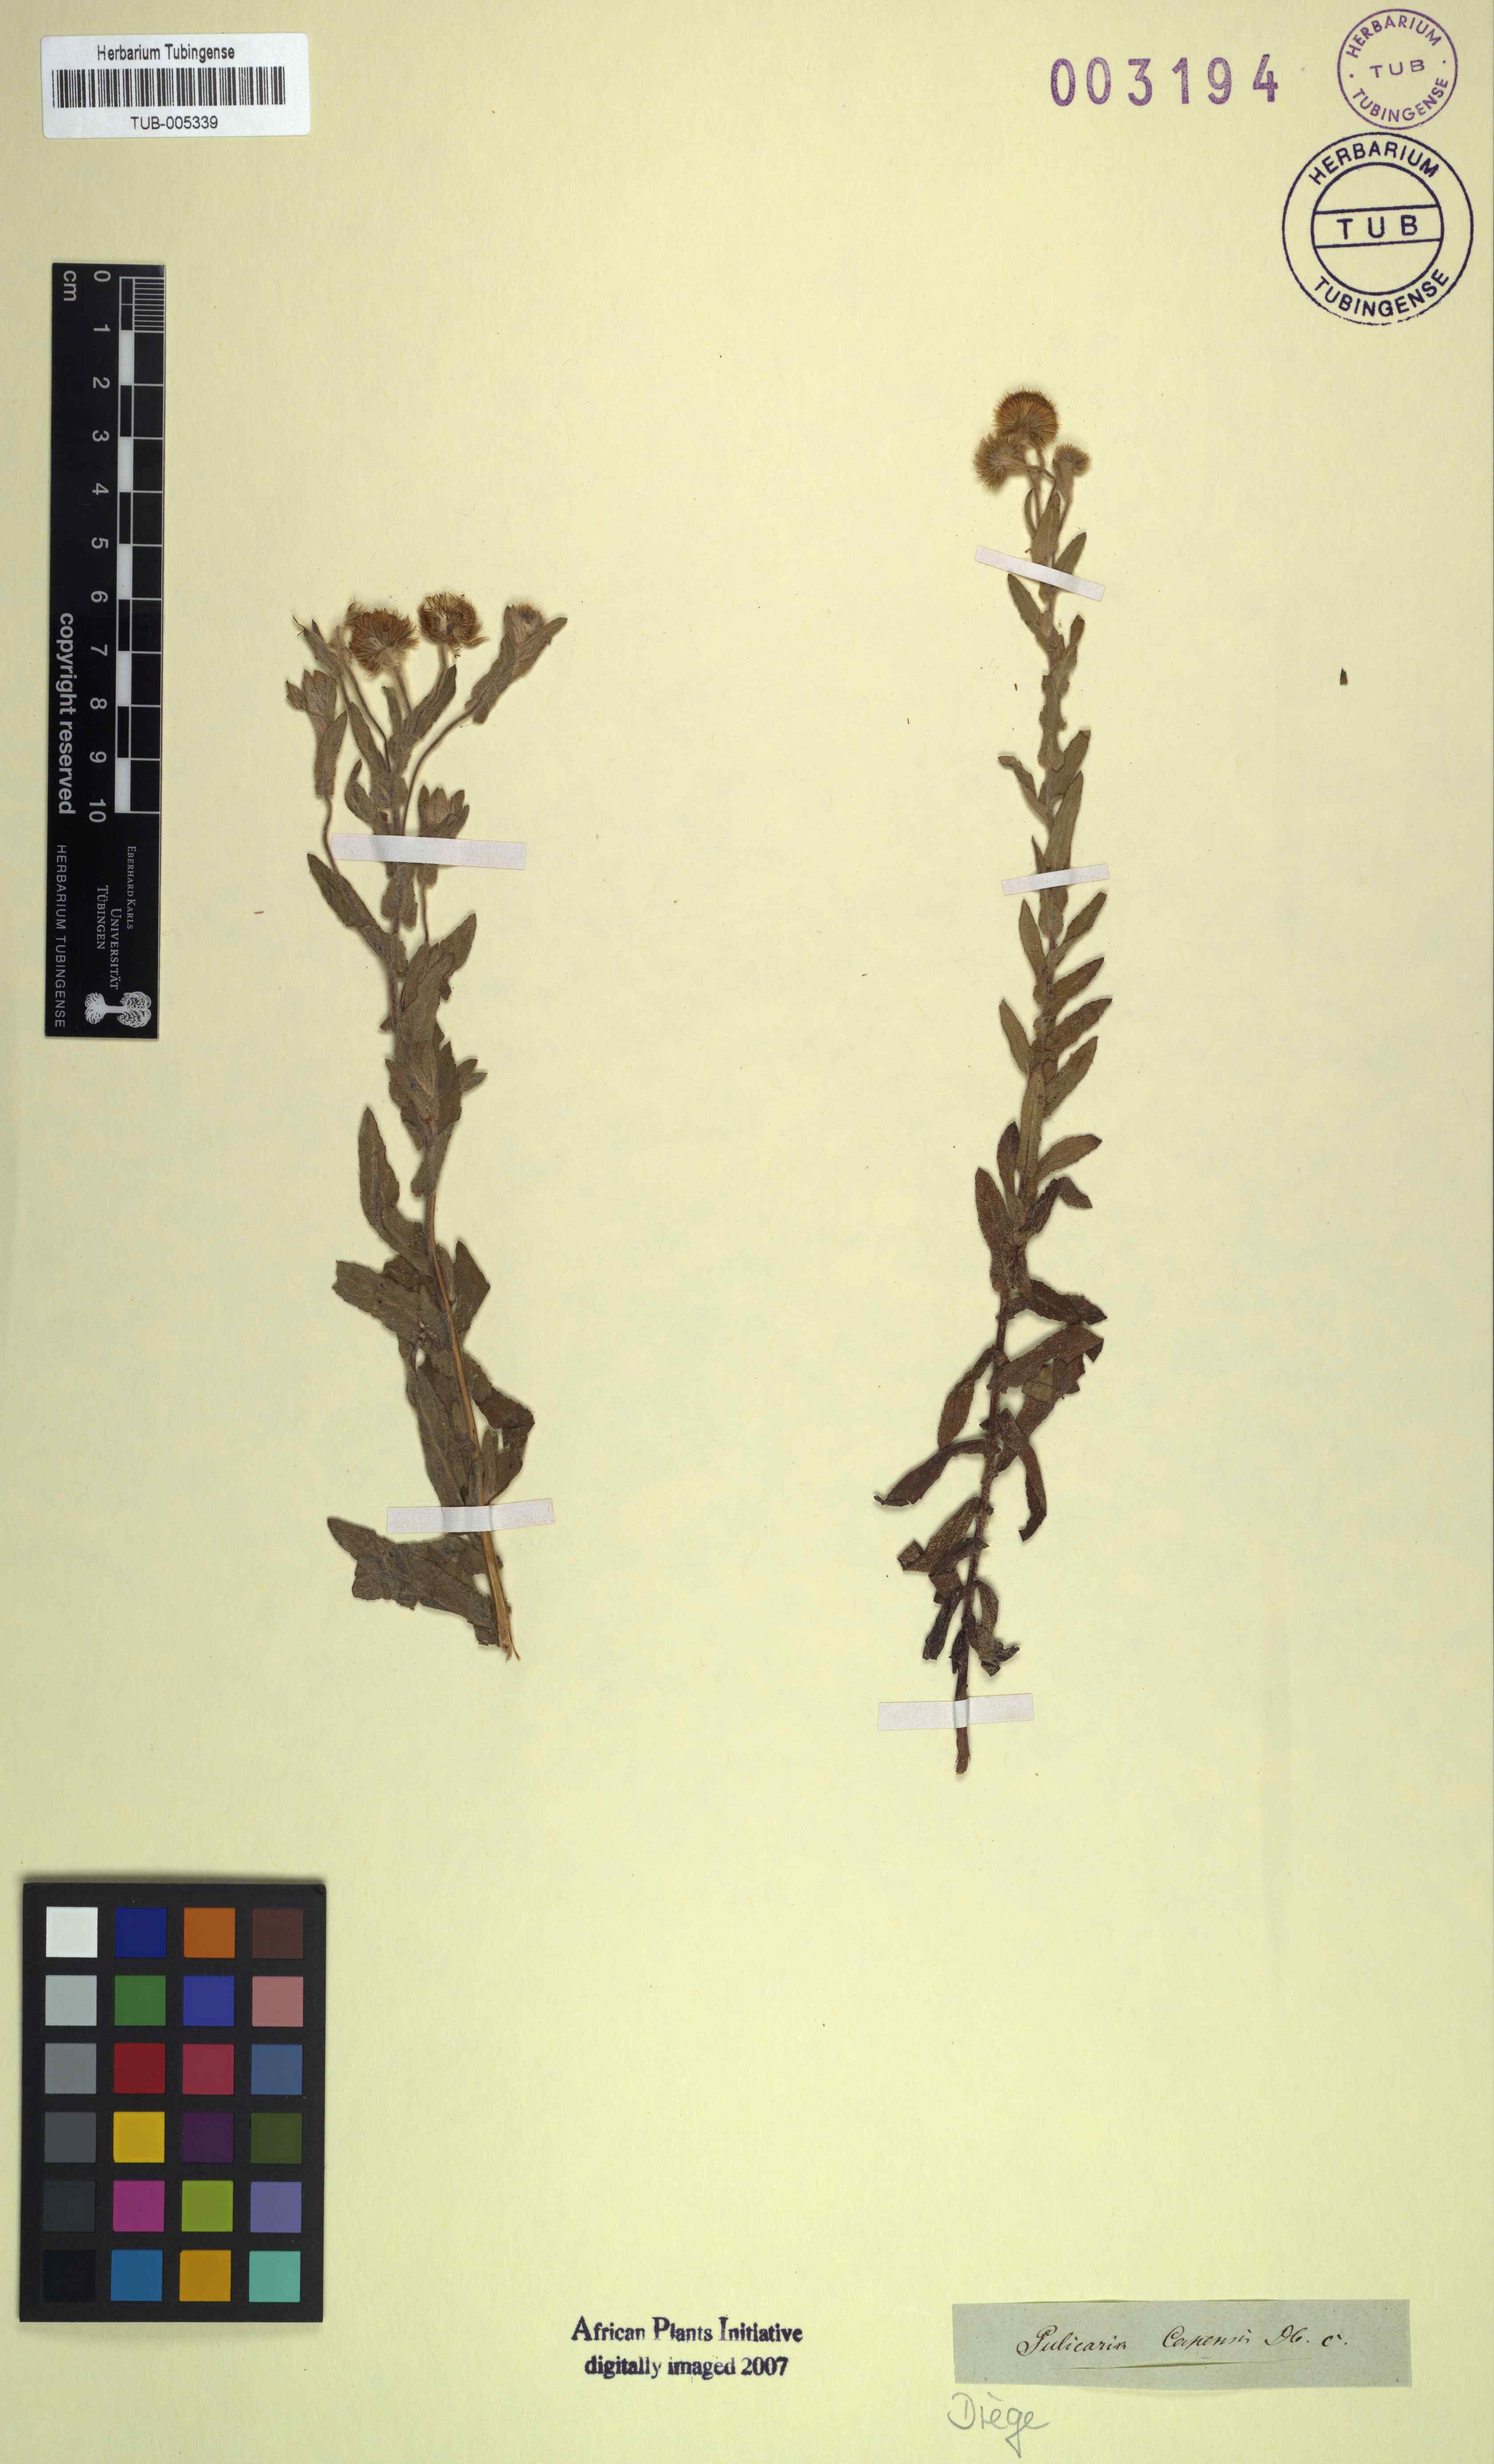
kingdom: Plantae
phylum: Tracheophyta
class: Magnoliopsida
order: Asterales
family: Asteraceae
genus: Pulicaria
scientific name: Pulicaria scabra
